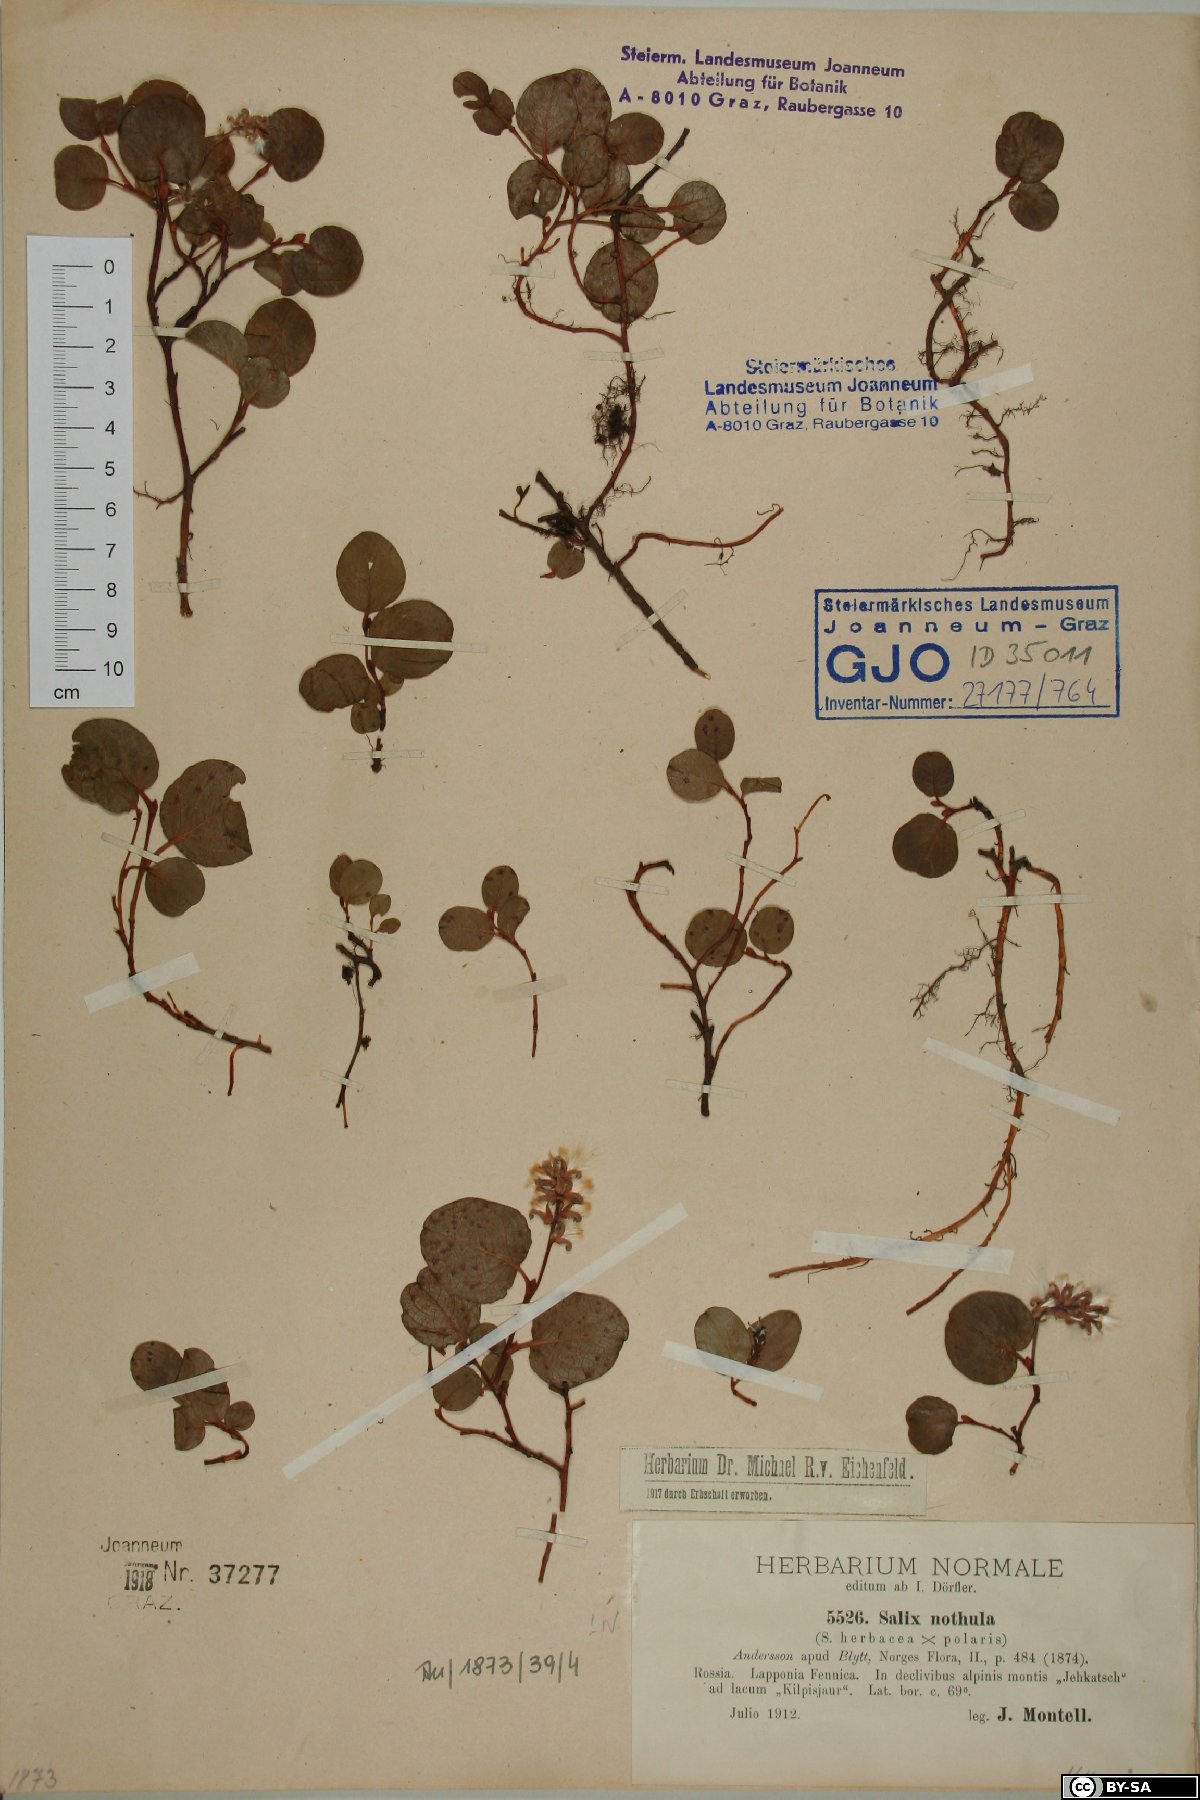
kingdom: Plantae
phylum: Tracheophyta
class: Magnoliopsida
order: Malpighiales
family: Salicaceae
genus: Salix
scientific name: Salix notha
